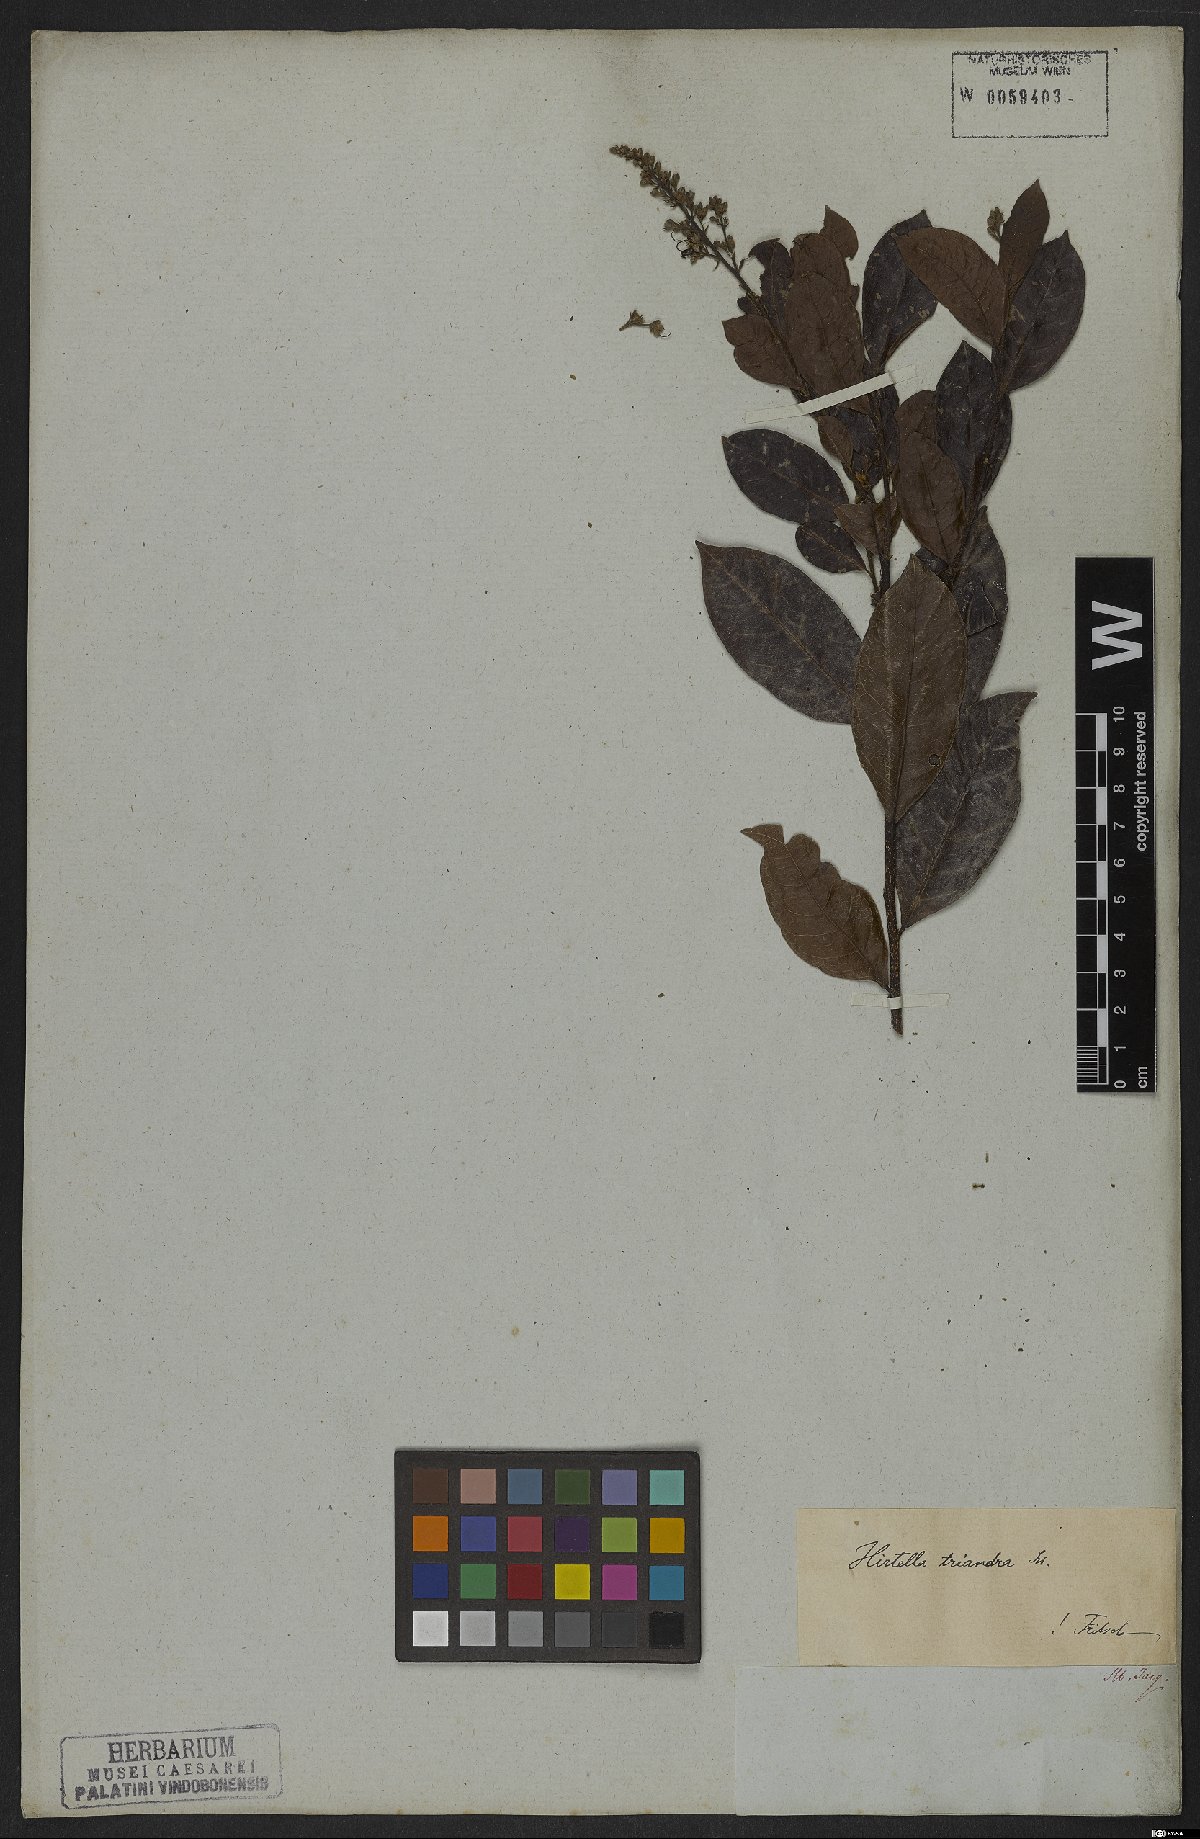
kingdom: Plantae
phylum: Tracheophyta
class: Magnoliopsida
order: Malpighiales
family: Chrysobalanaceae
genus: Hirtella
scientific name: Hirtella triandra
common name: Hairy plum
